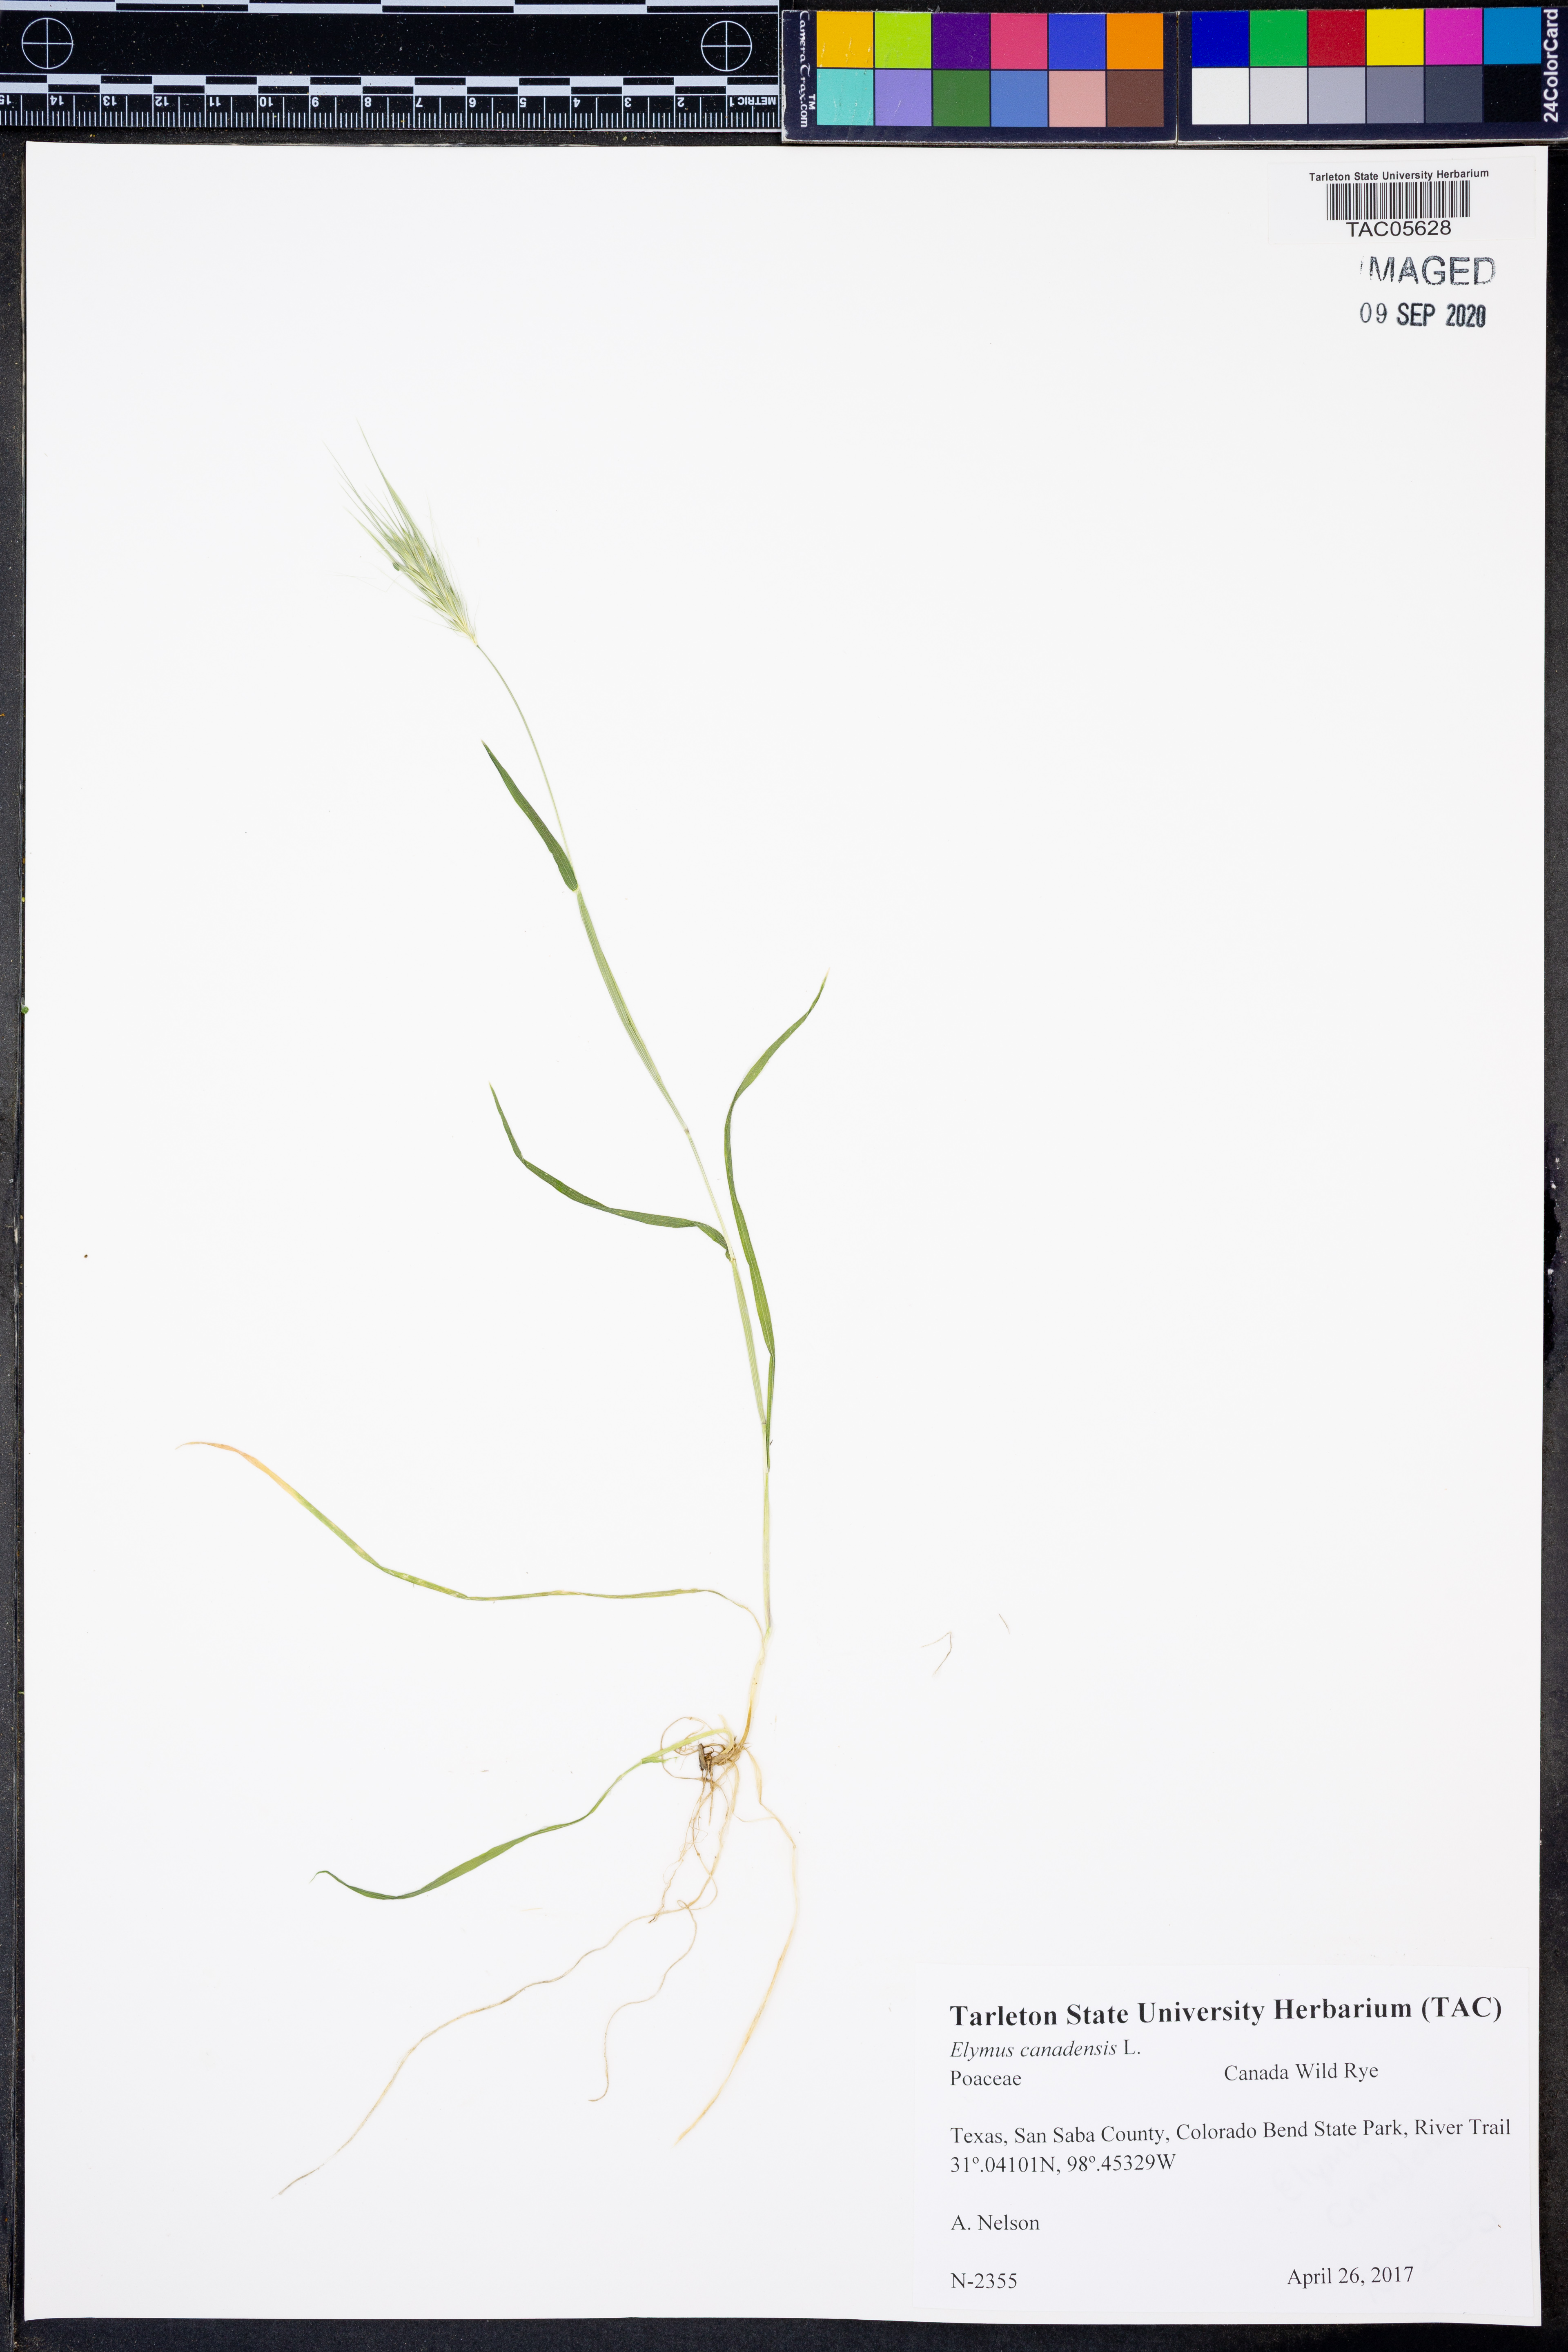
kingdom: Plantae
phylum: Tracheophyta
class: Liliopsida
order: Poales
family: Poaceae
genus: Elymus
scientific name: Elymus canadensis
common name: Canada wild rye
